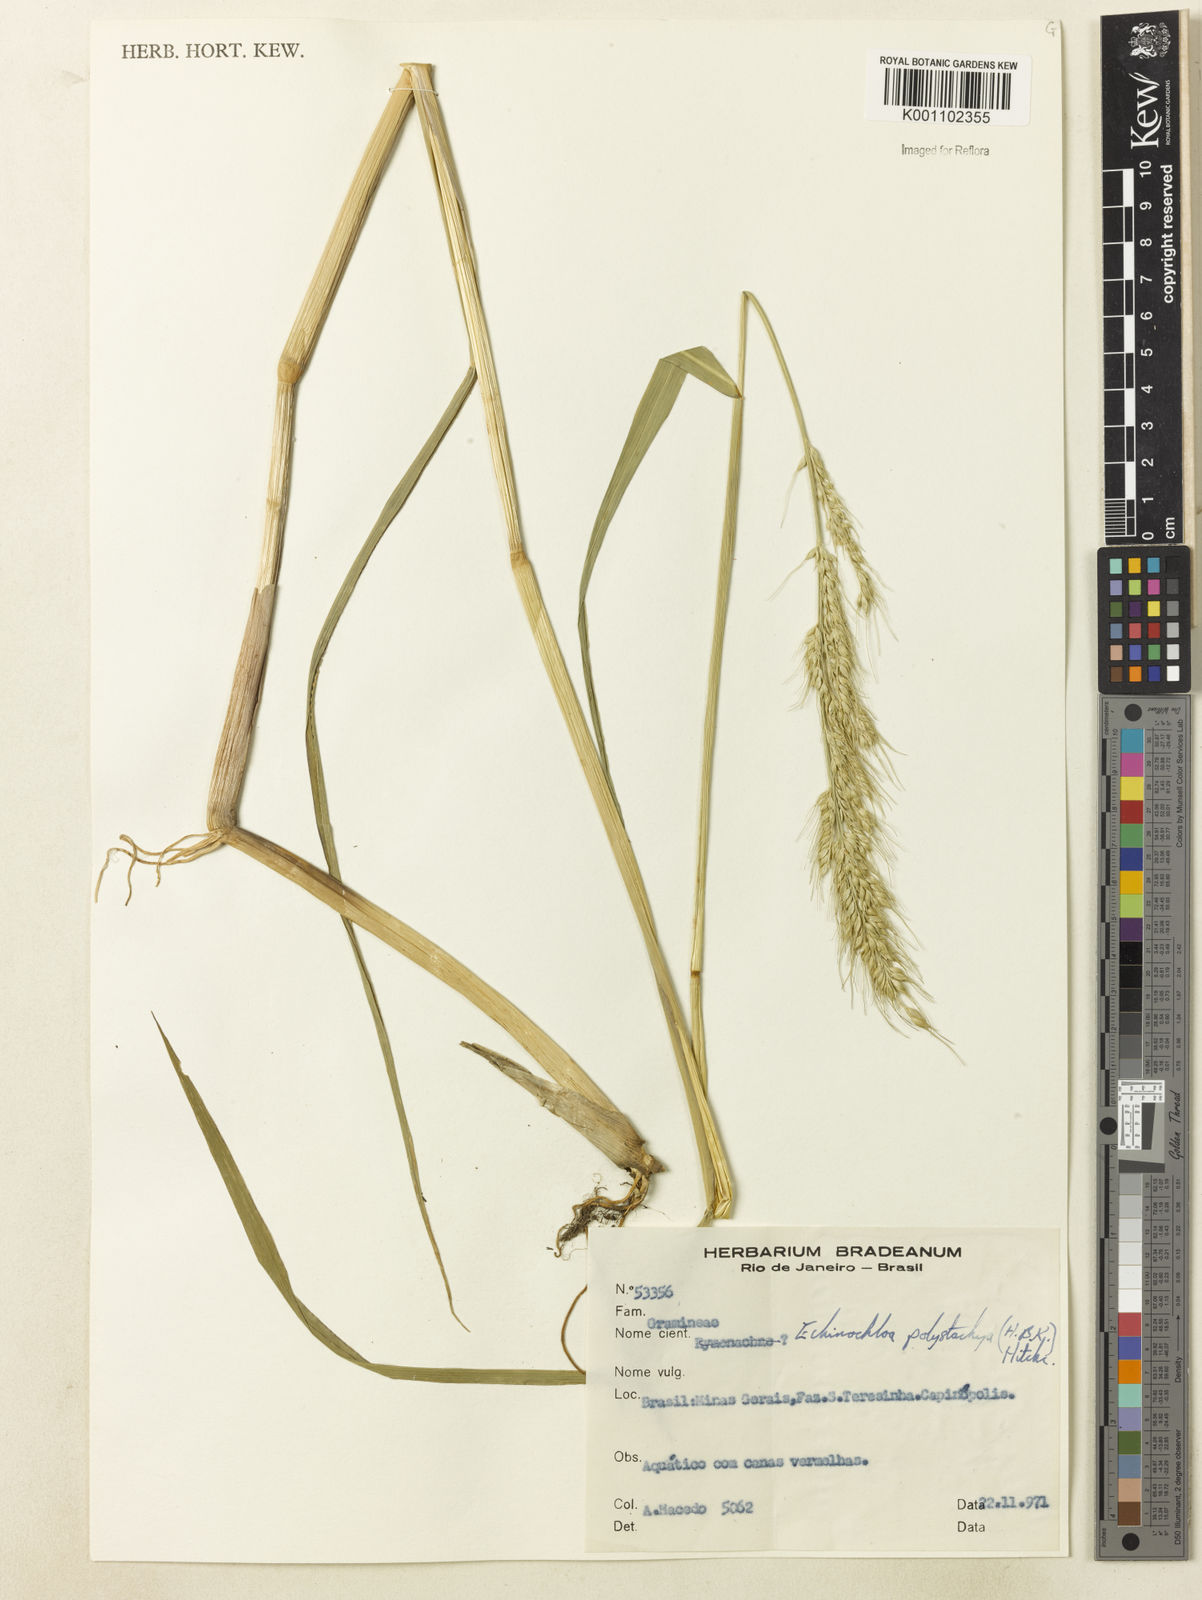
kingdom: Plantae
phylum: Tracheophyta
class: Liliopsida
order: Poales
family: Poaceae
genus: Echinochloa
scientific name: Echinochloa polystachya
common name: Creeping river grass
